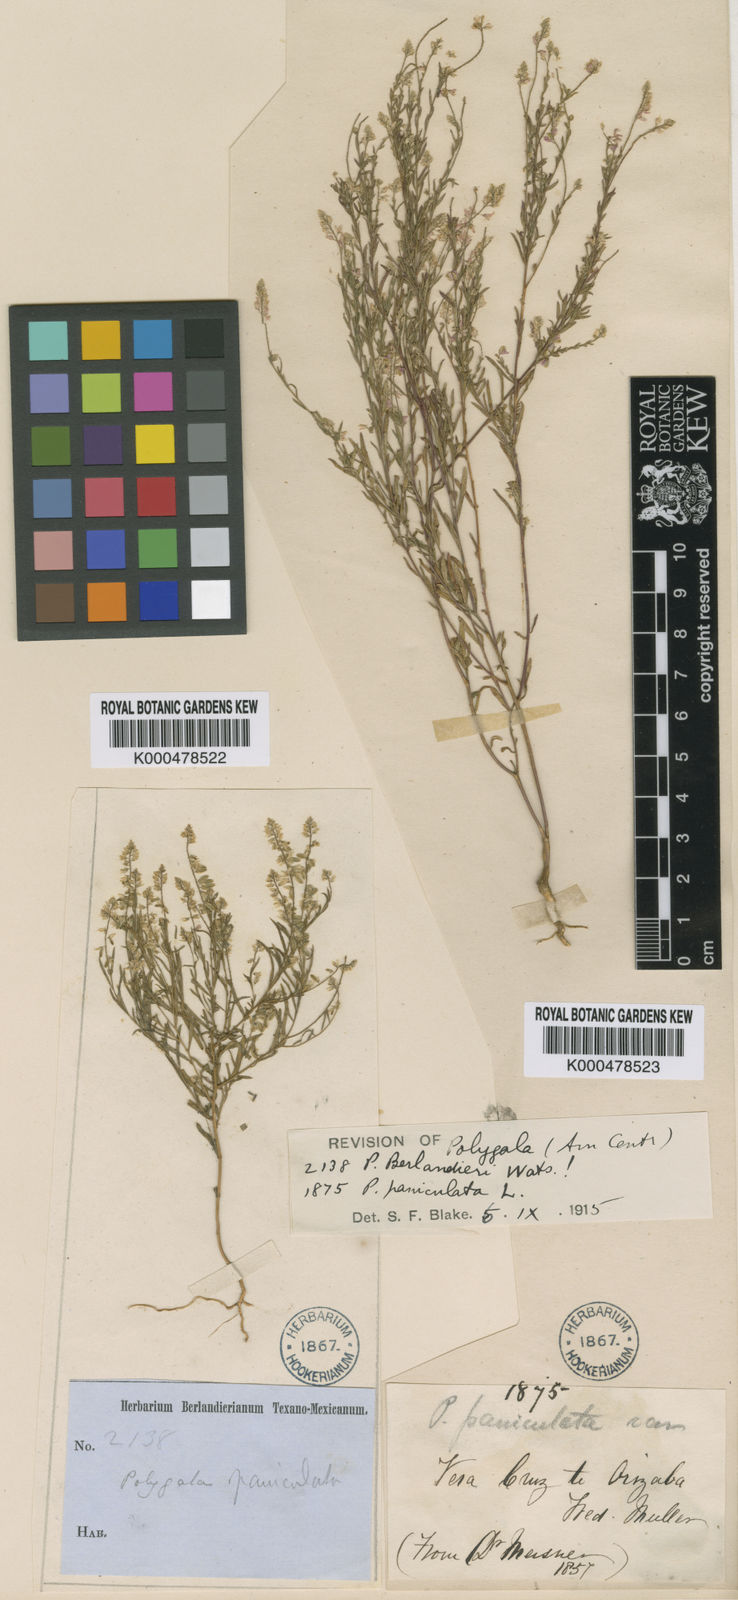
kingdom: Plantae
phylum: Tracheophyta
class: Magnoliopsida
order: Fabales
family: Polygalaceae
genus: Polygala
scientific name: Polygala berlandieri
